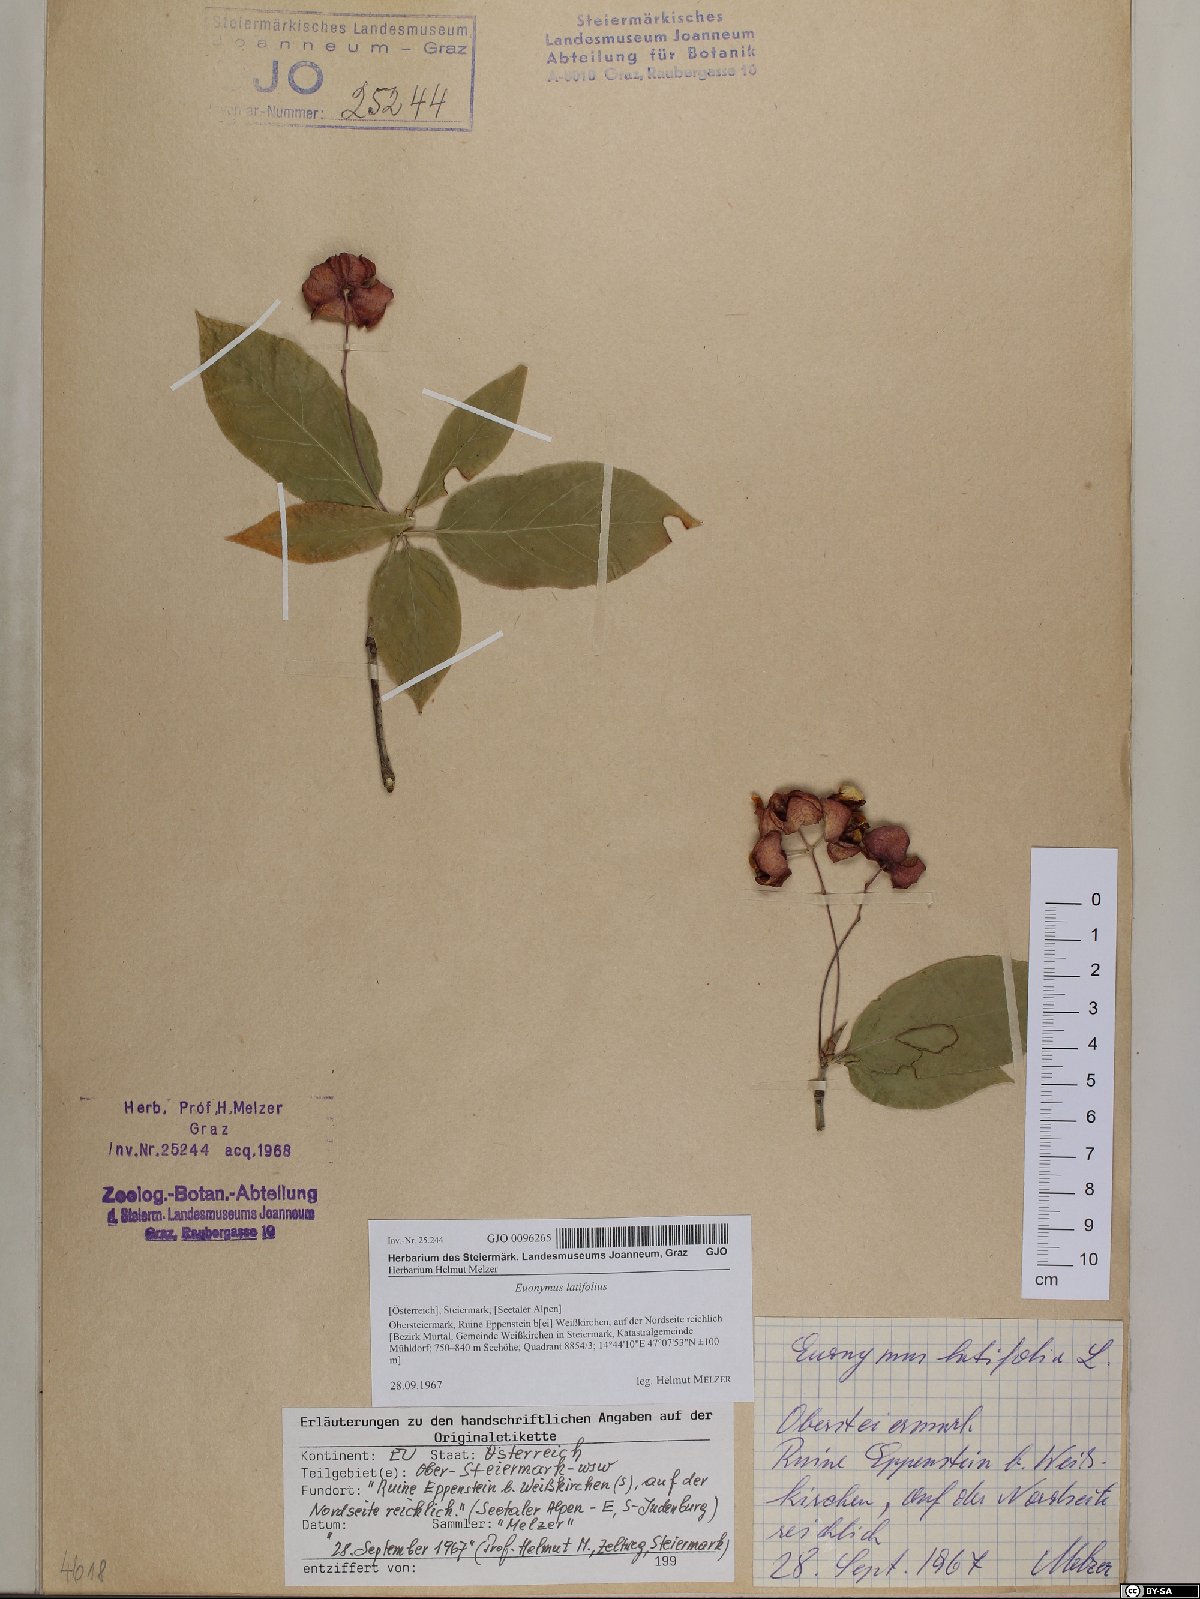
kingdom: Plantae
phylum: Tracheophyta
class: Magnoliopsida
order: Celastrales
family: Celastraceae
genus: Euonymus
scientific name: Euonymus latifolius
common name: Large-leaved spindle
